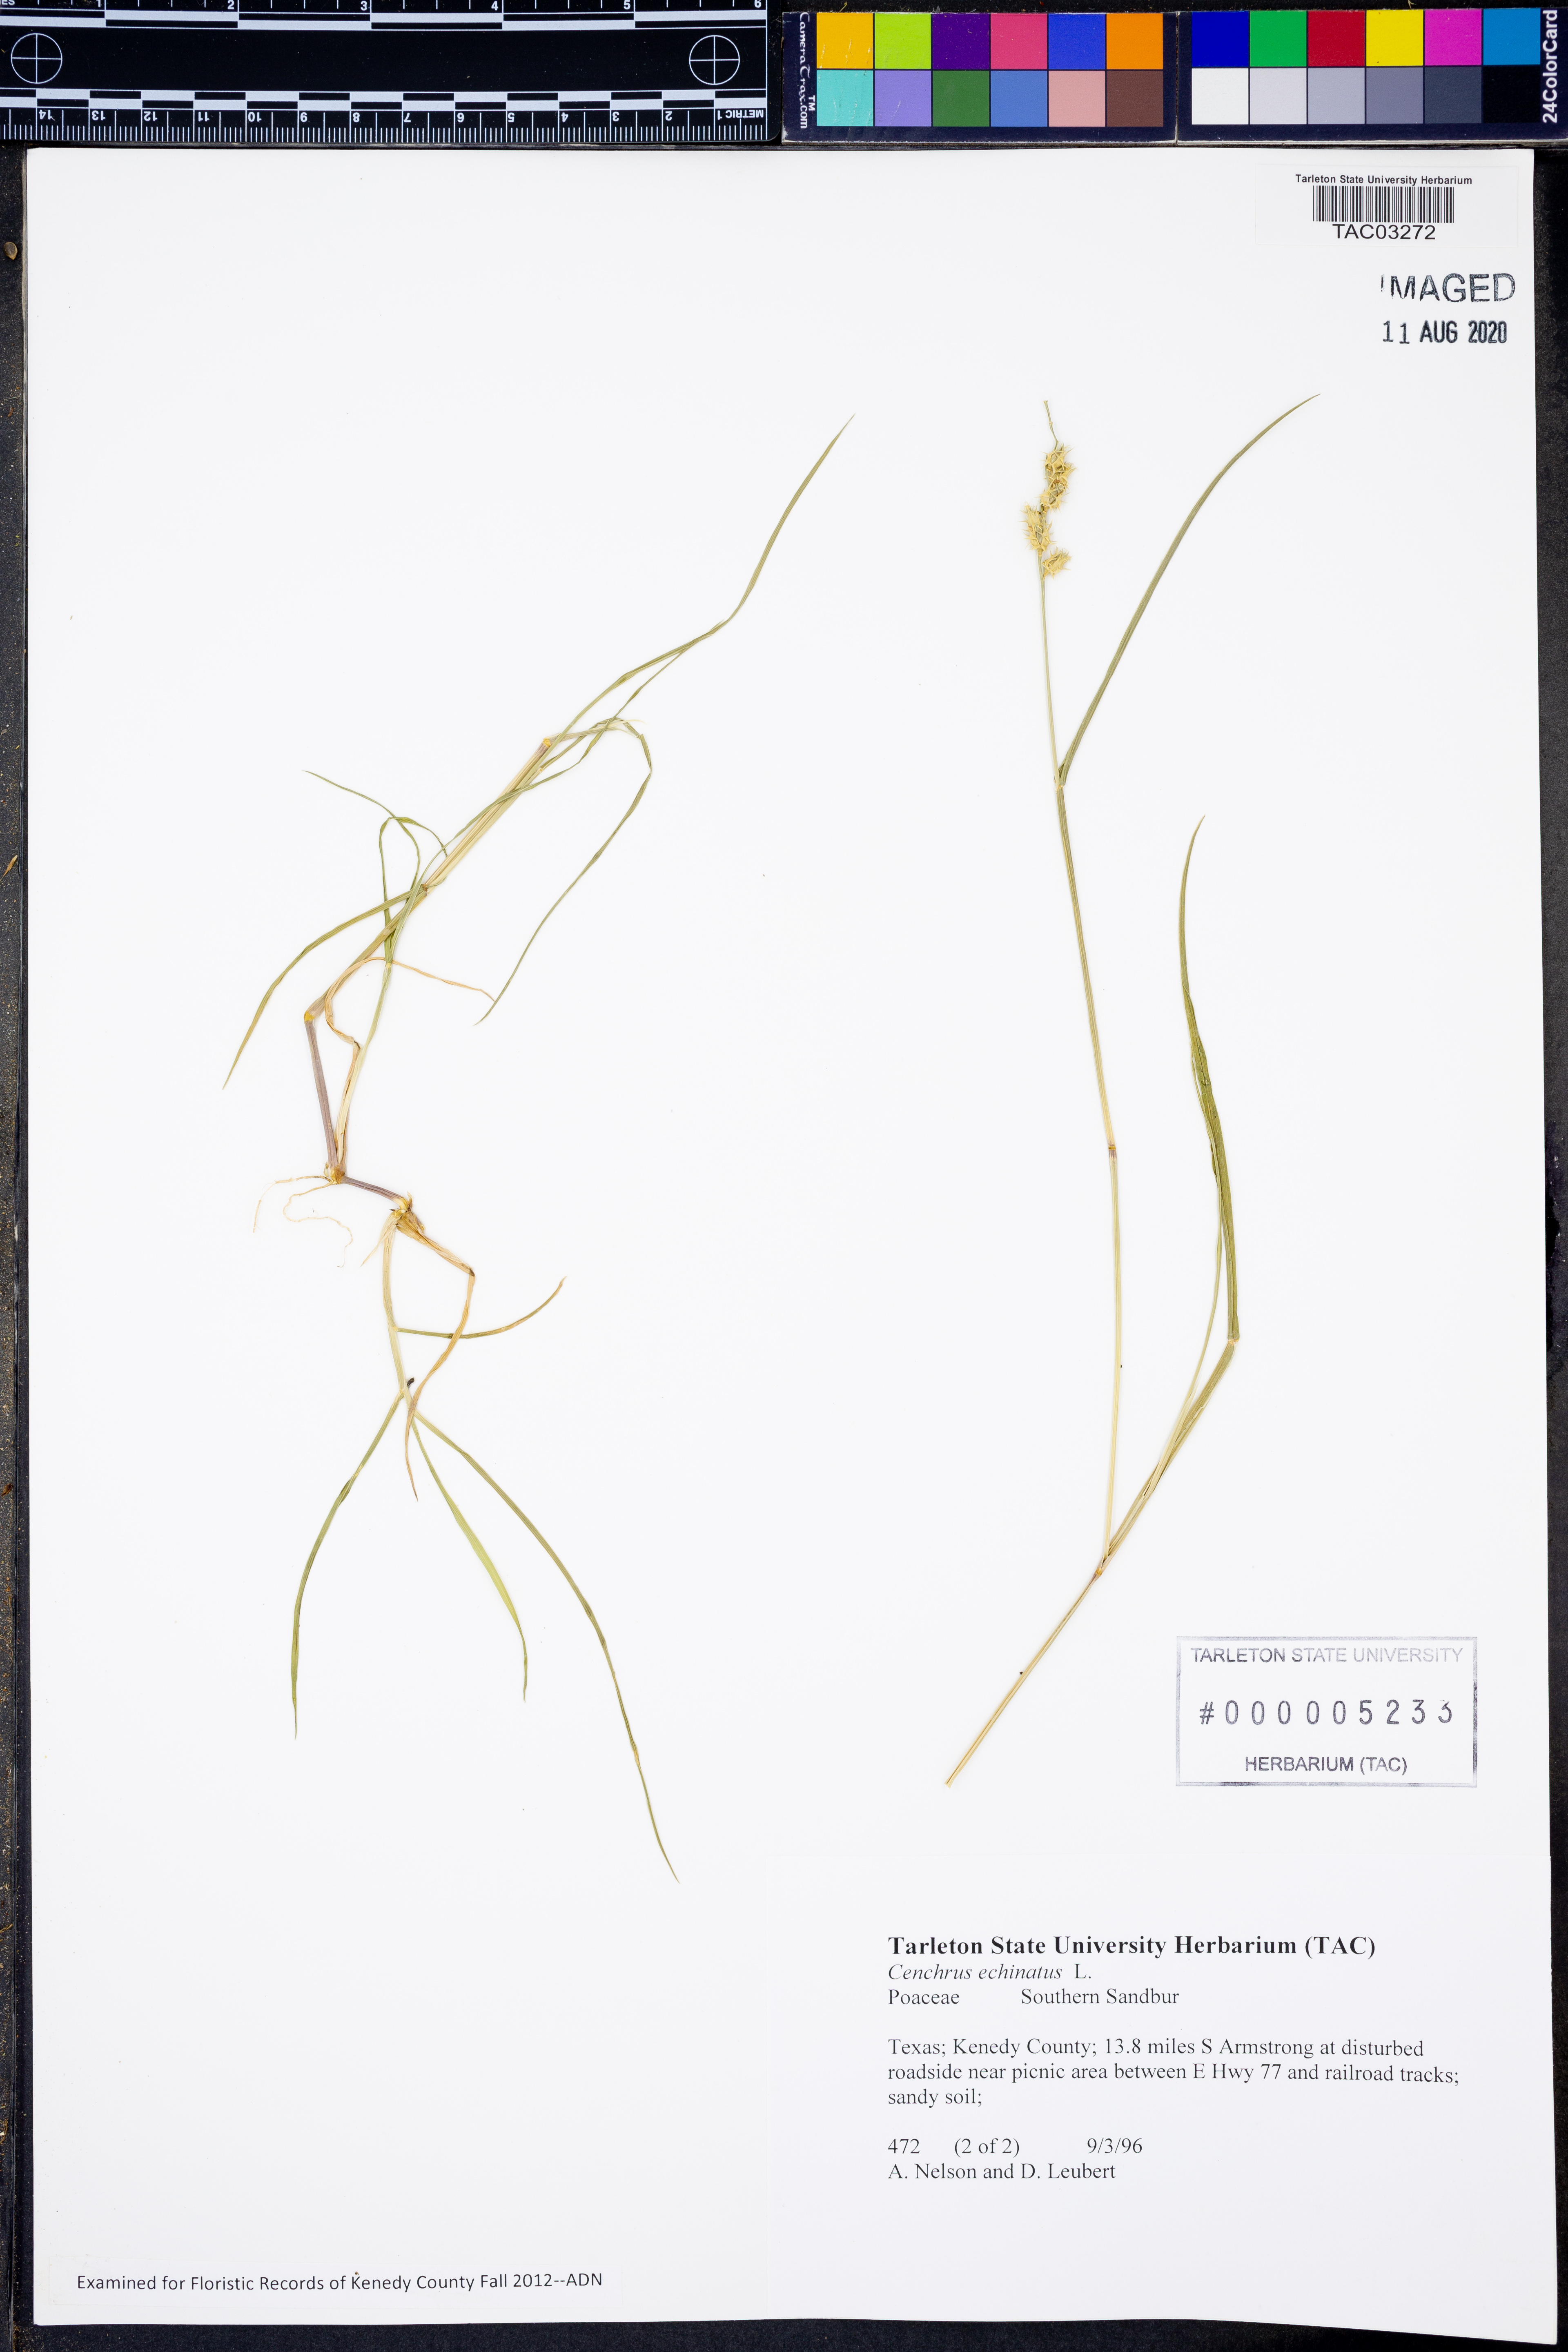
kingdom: Plantae
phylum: Tracheophyta
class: Liliopsida
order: Poales
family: Poaceae
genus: Cenchrus
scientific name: Cenchrus echinatus
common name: Southern sandbur
